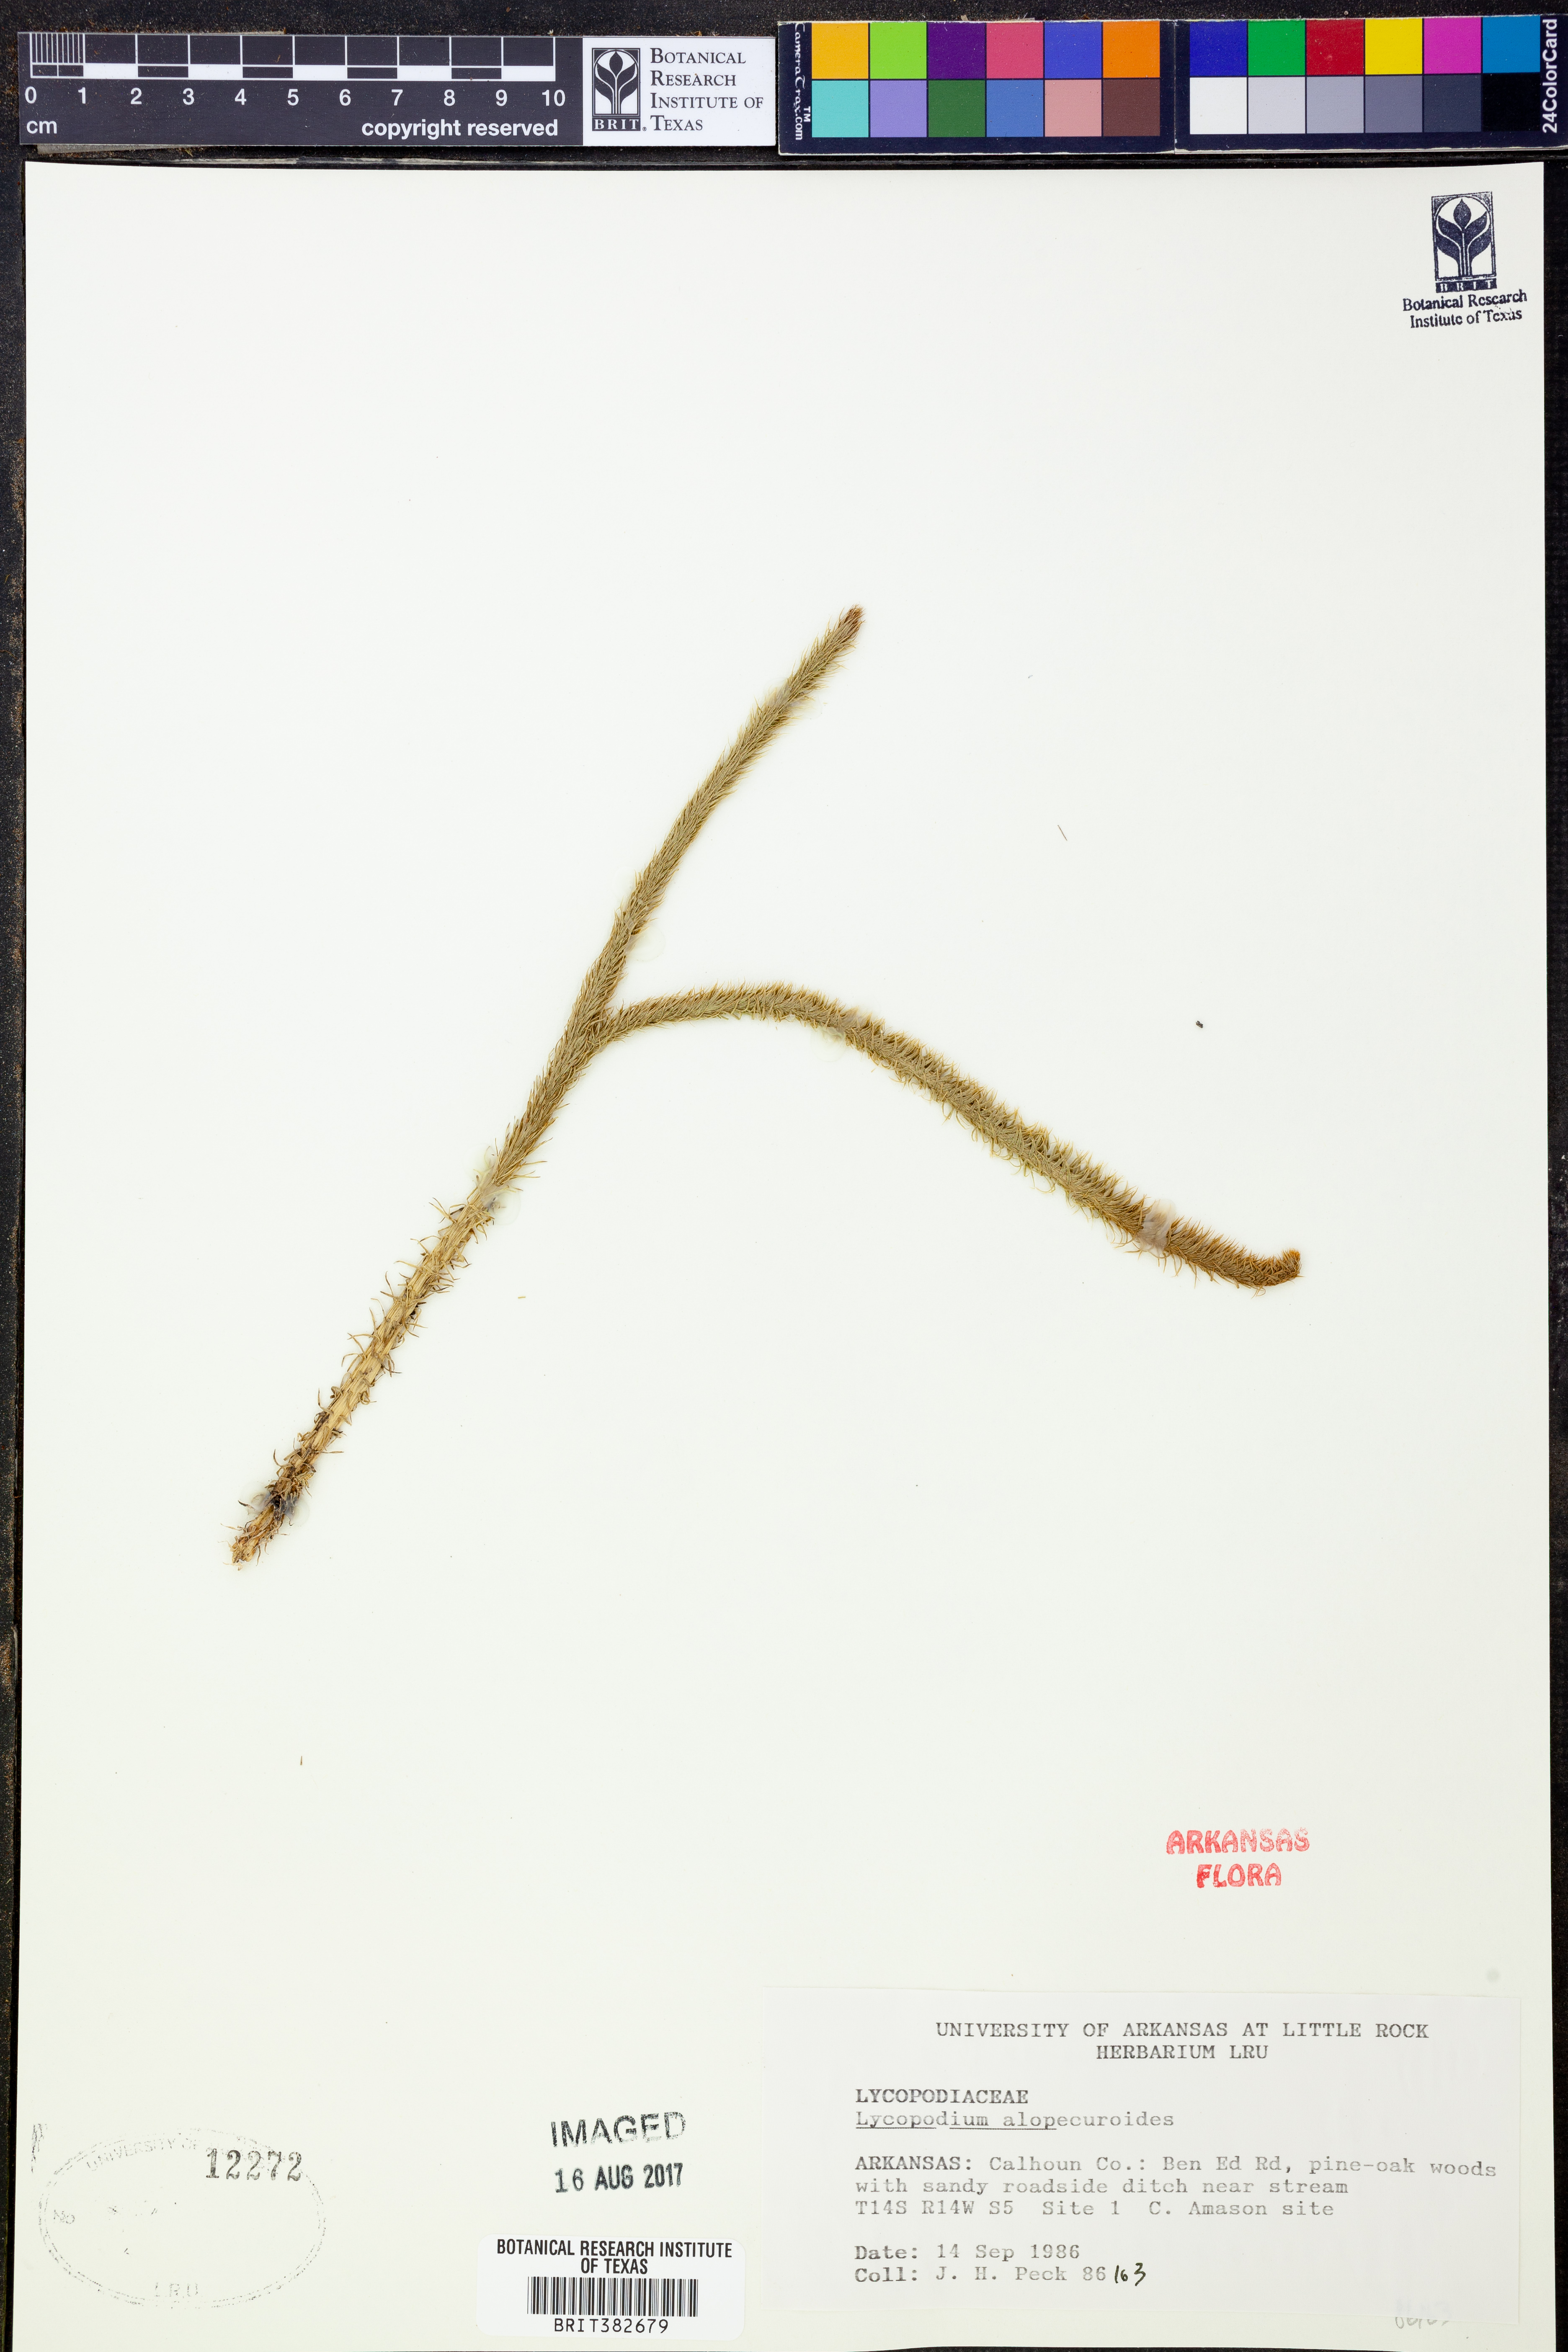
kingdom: Plantae
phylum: Tracheophyta
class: Lycopodiopsida
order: Lycopodiales
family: Lycopodiaceae
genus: Lycopodiella
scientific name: Lycopodiella alopecuroides
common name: Foxtail clubmoss
